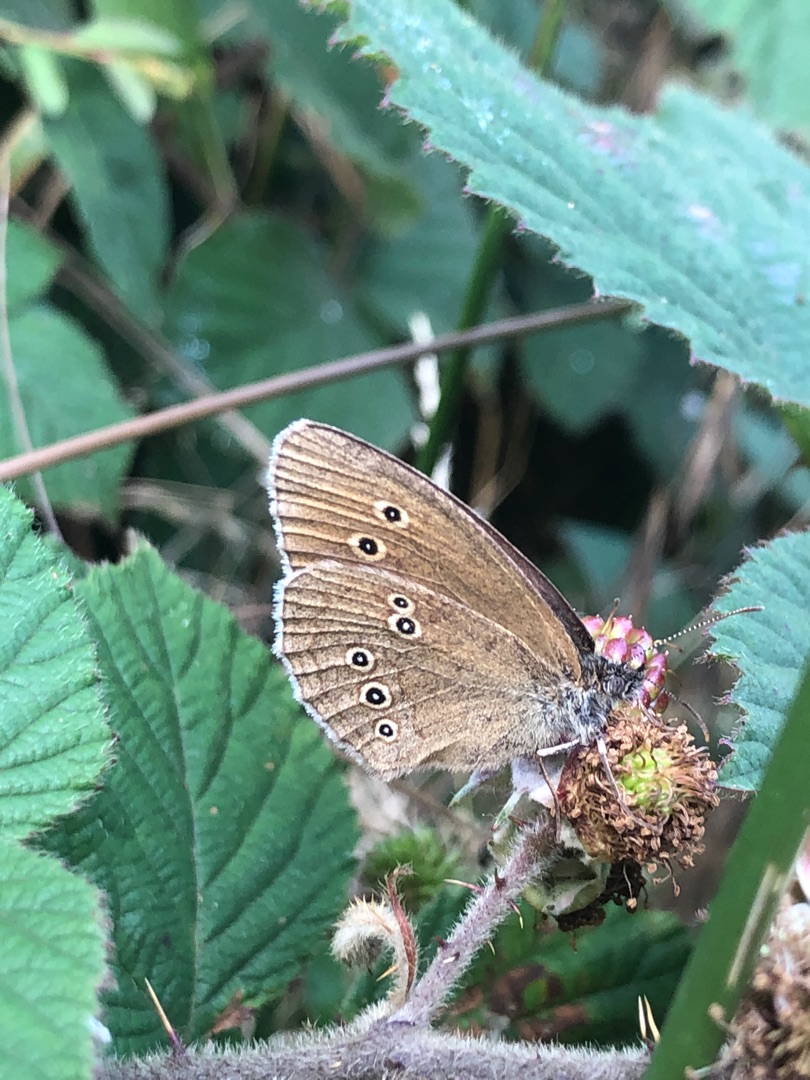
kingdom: Animalia
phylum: Arthropoda
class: Insecta
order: Lepidoptera
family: Nymphalidae
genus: Aphantopus
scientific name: Aphantopus hyperantus
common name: Engrandøje
